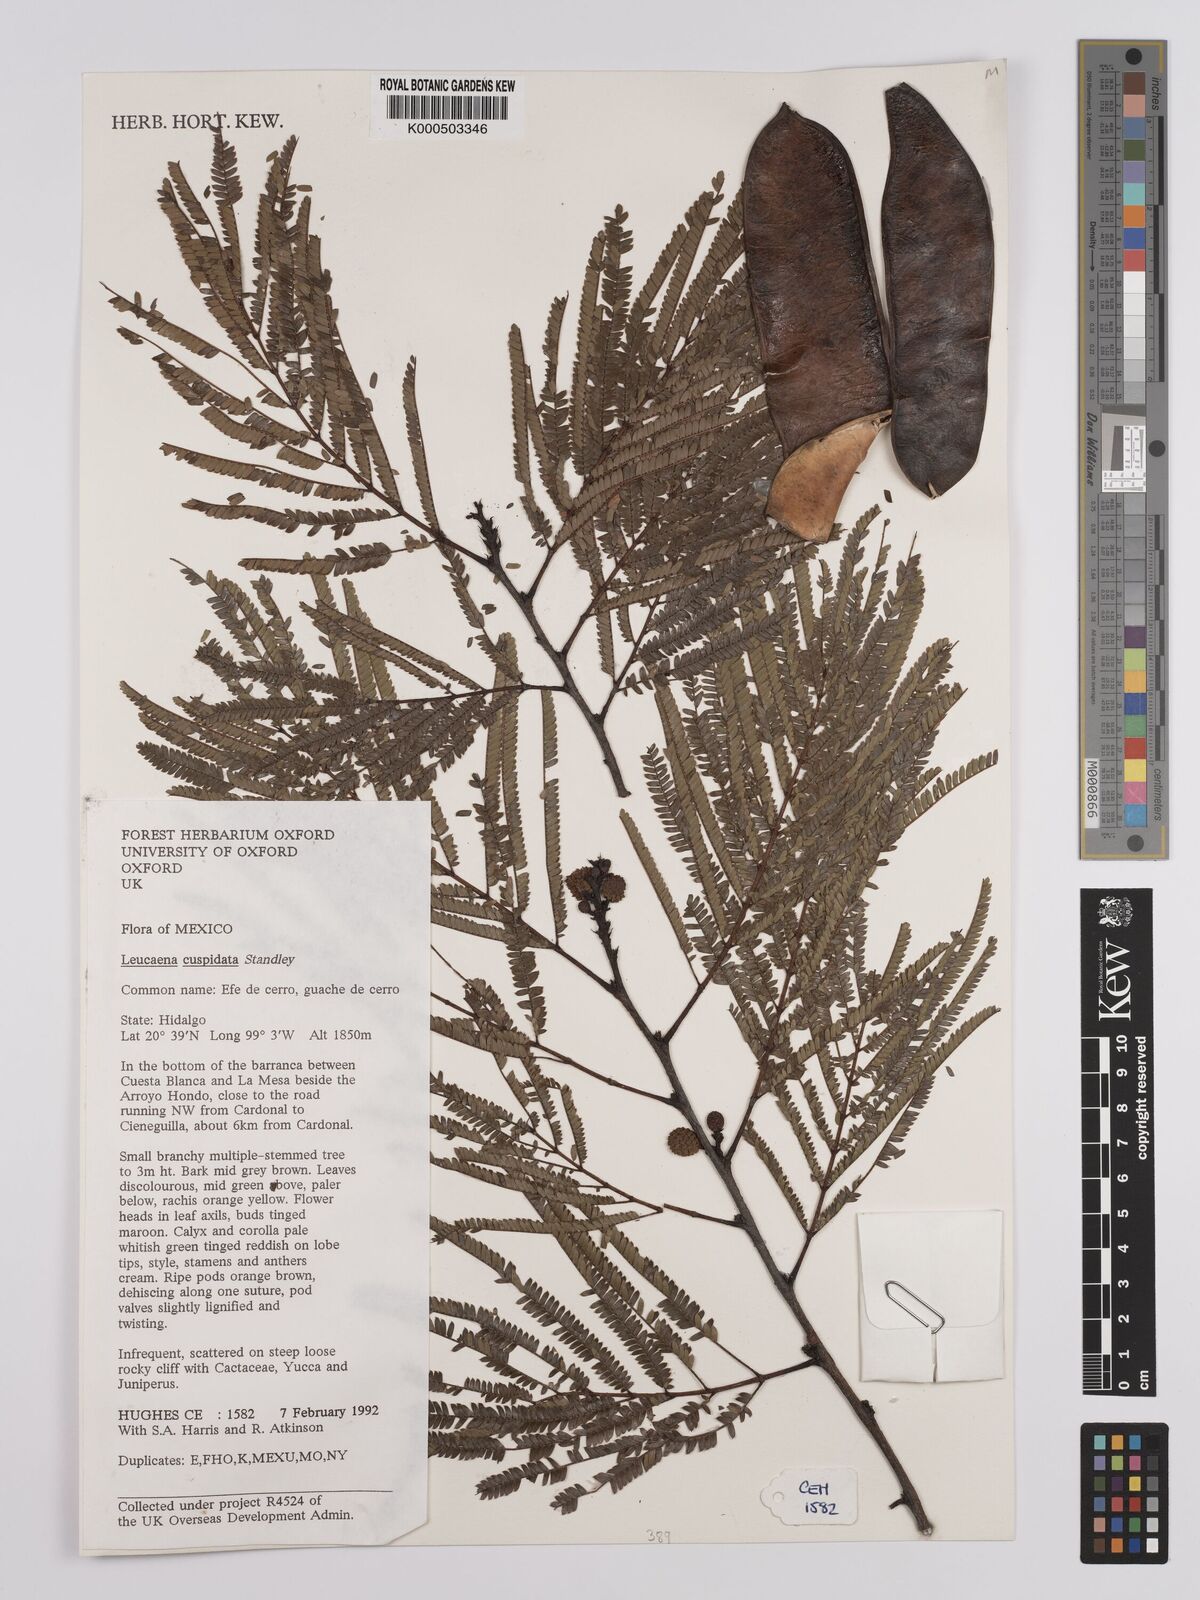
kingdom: Plantae
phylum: Tracheophyta
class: Magnoliopsida
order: Fabales
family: Fabaceae
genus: Leucaena
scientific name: Leucaena cuspidata
